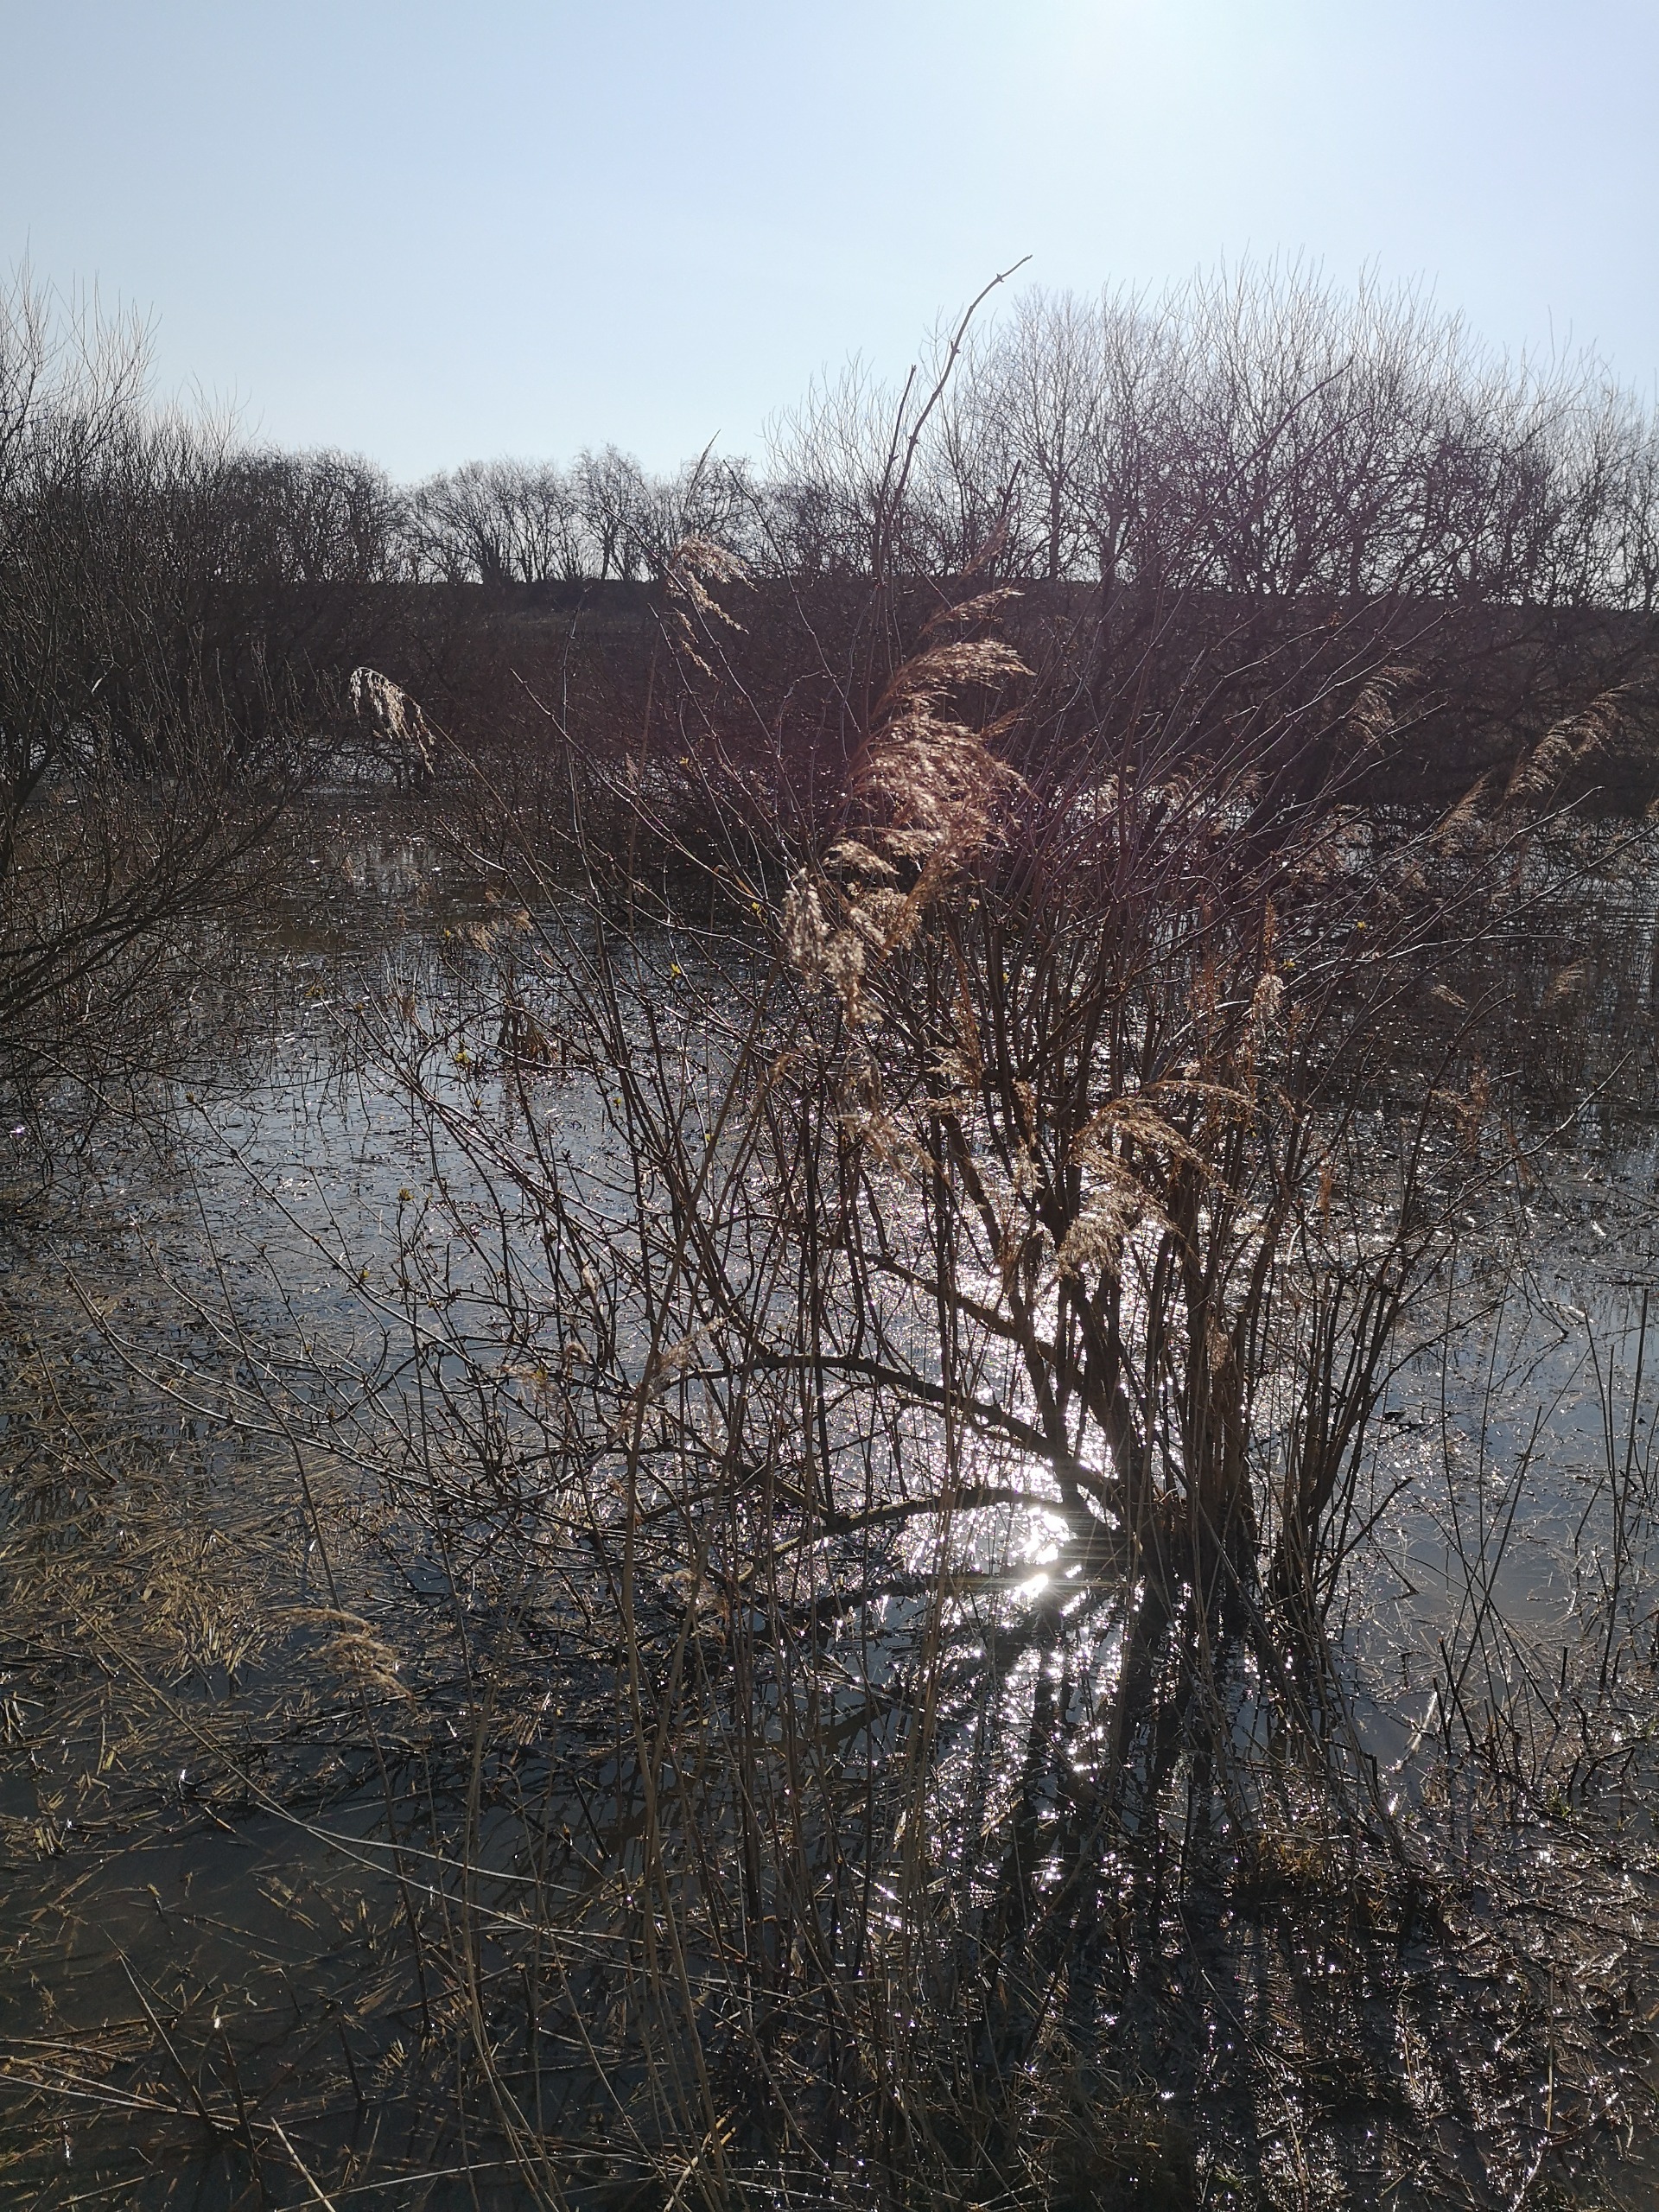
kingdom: Plantae
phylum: Tracheophyta
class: Liliopsida
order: Poales
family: Poaceae
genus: Phragmites
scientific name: Phragmites australis
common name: Tagrør
